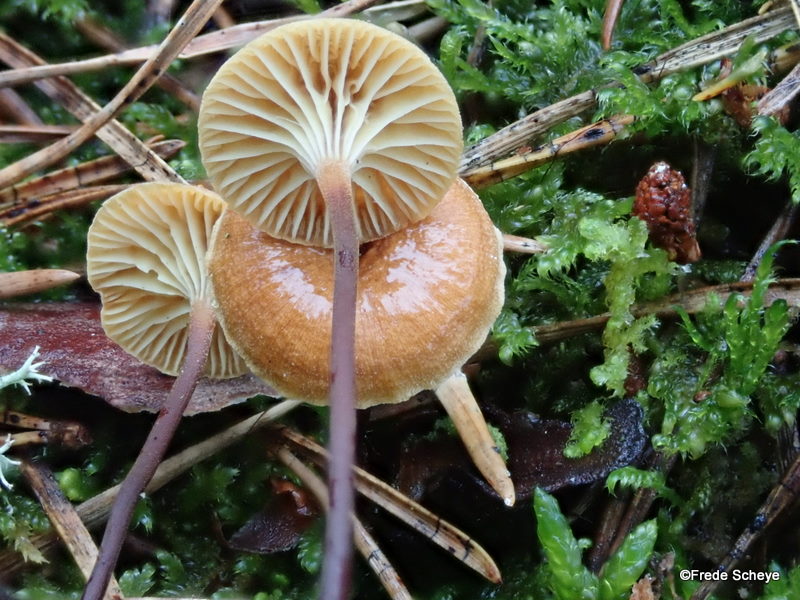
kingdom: Fungi
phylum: Basidiomycota
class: Agaricomycetes
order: Agaricales
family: Mycenaceae
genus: Xeromphalina
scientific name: Xeromphalina setulipes
